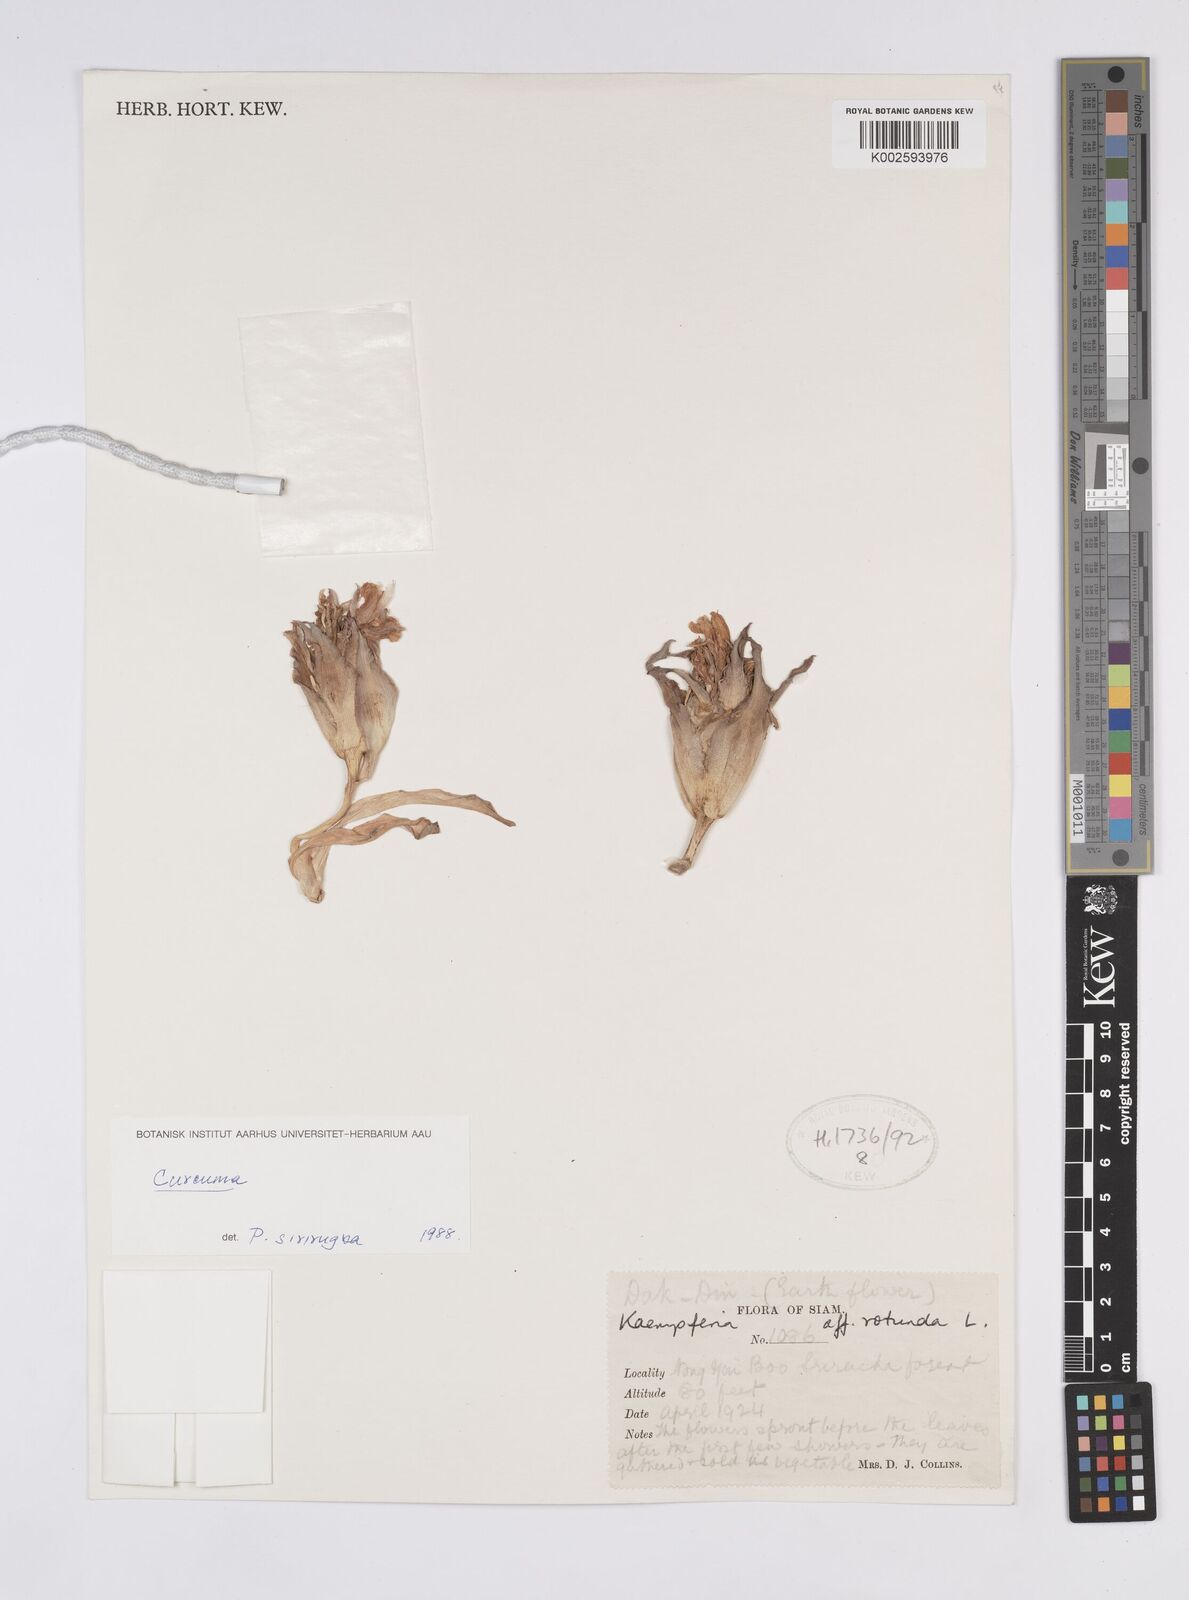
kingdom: Plantae
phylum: Tracheophyta
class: Liliopsida
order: Zingiberales
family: Zingiberaceae
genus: Curcuma
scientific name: Curcuma
